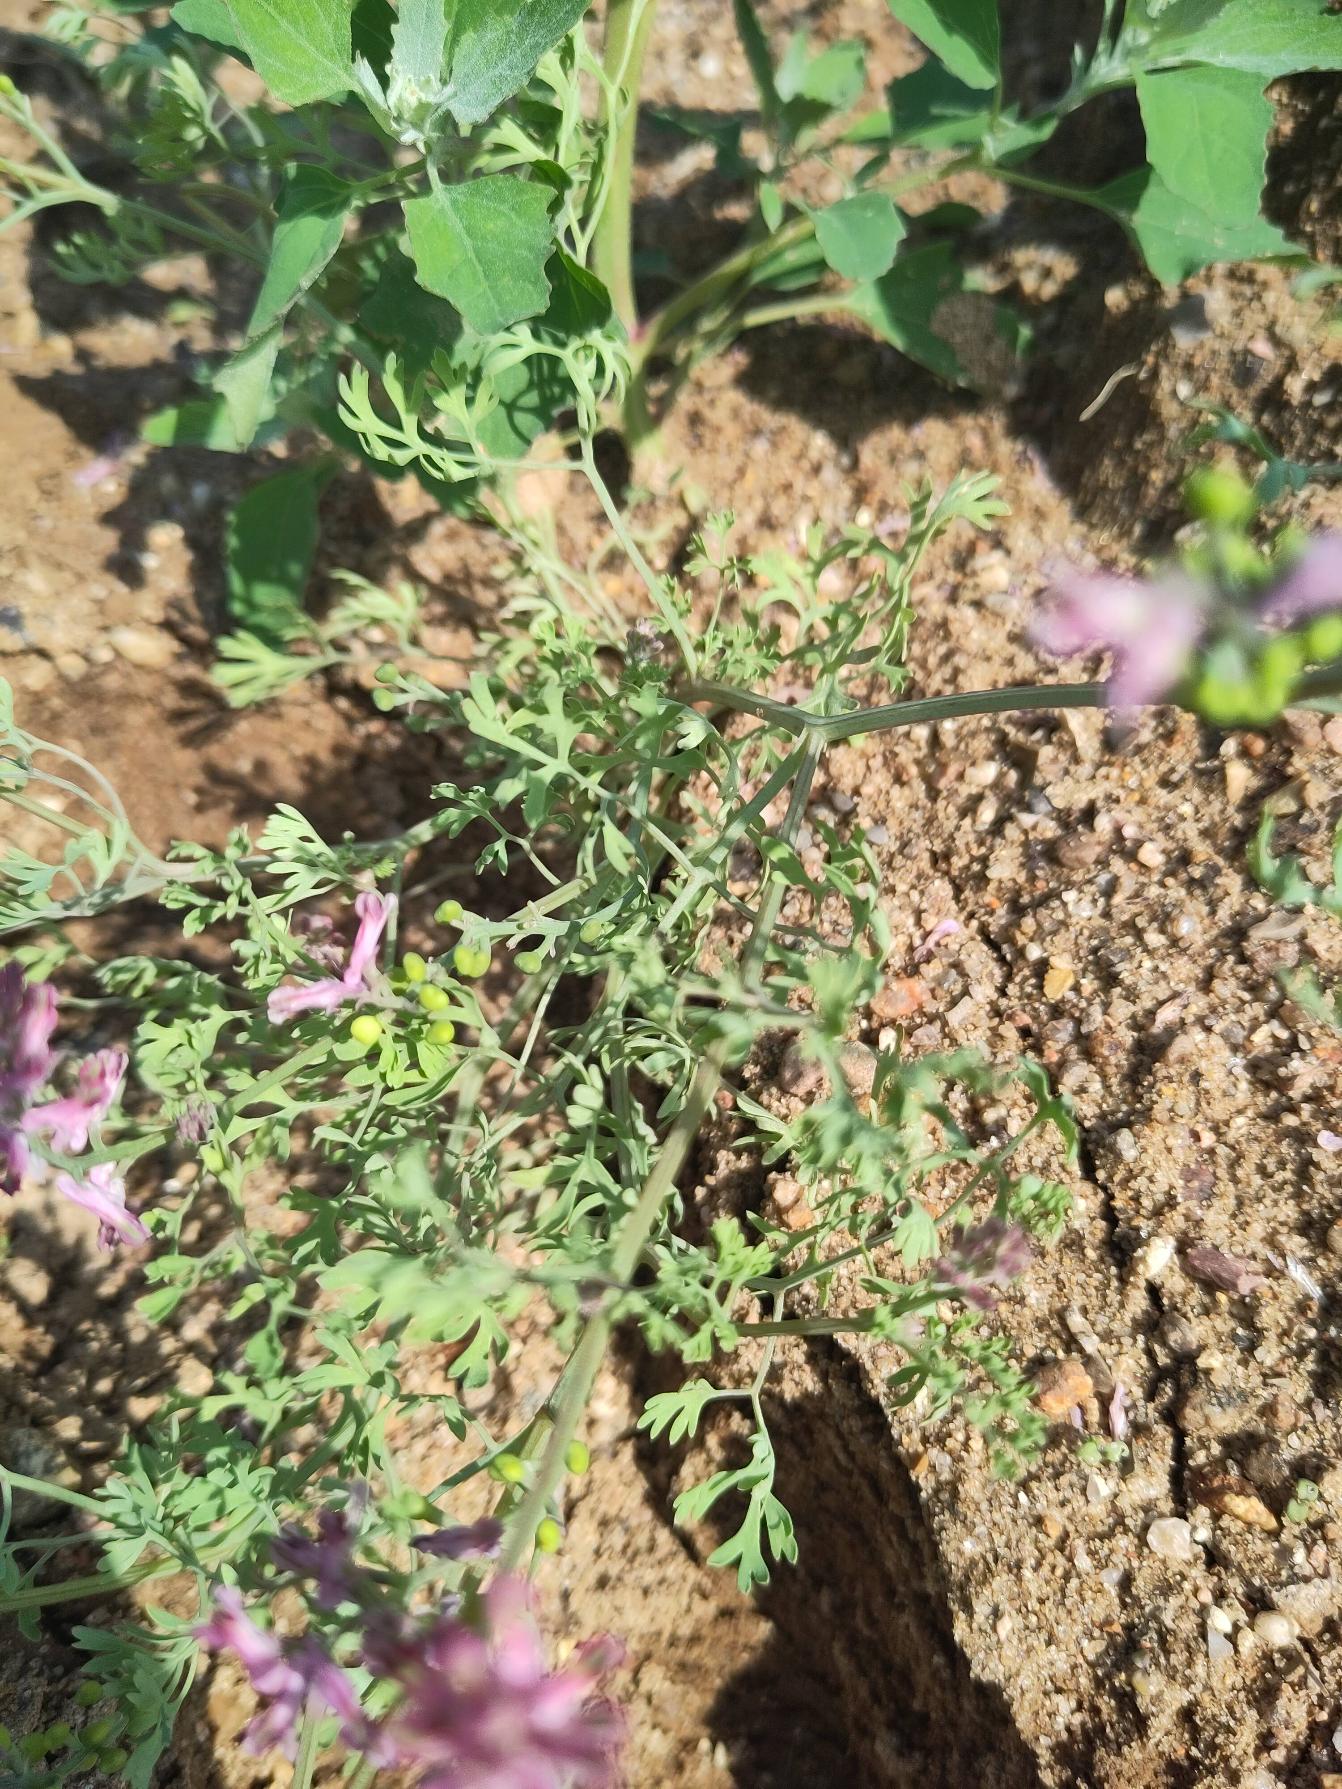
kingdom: Plantae
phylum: Tracheophyta
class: Magnoliopsida
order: Ranunculales
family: Papaveraceae
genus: Fumaria
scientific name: Fumaria officinalis
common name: Læge-jordrøg
